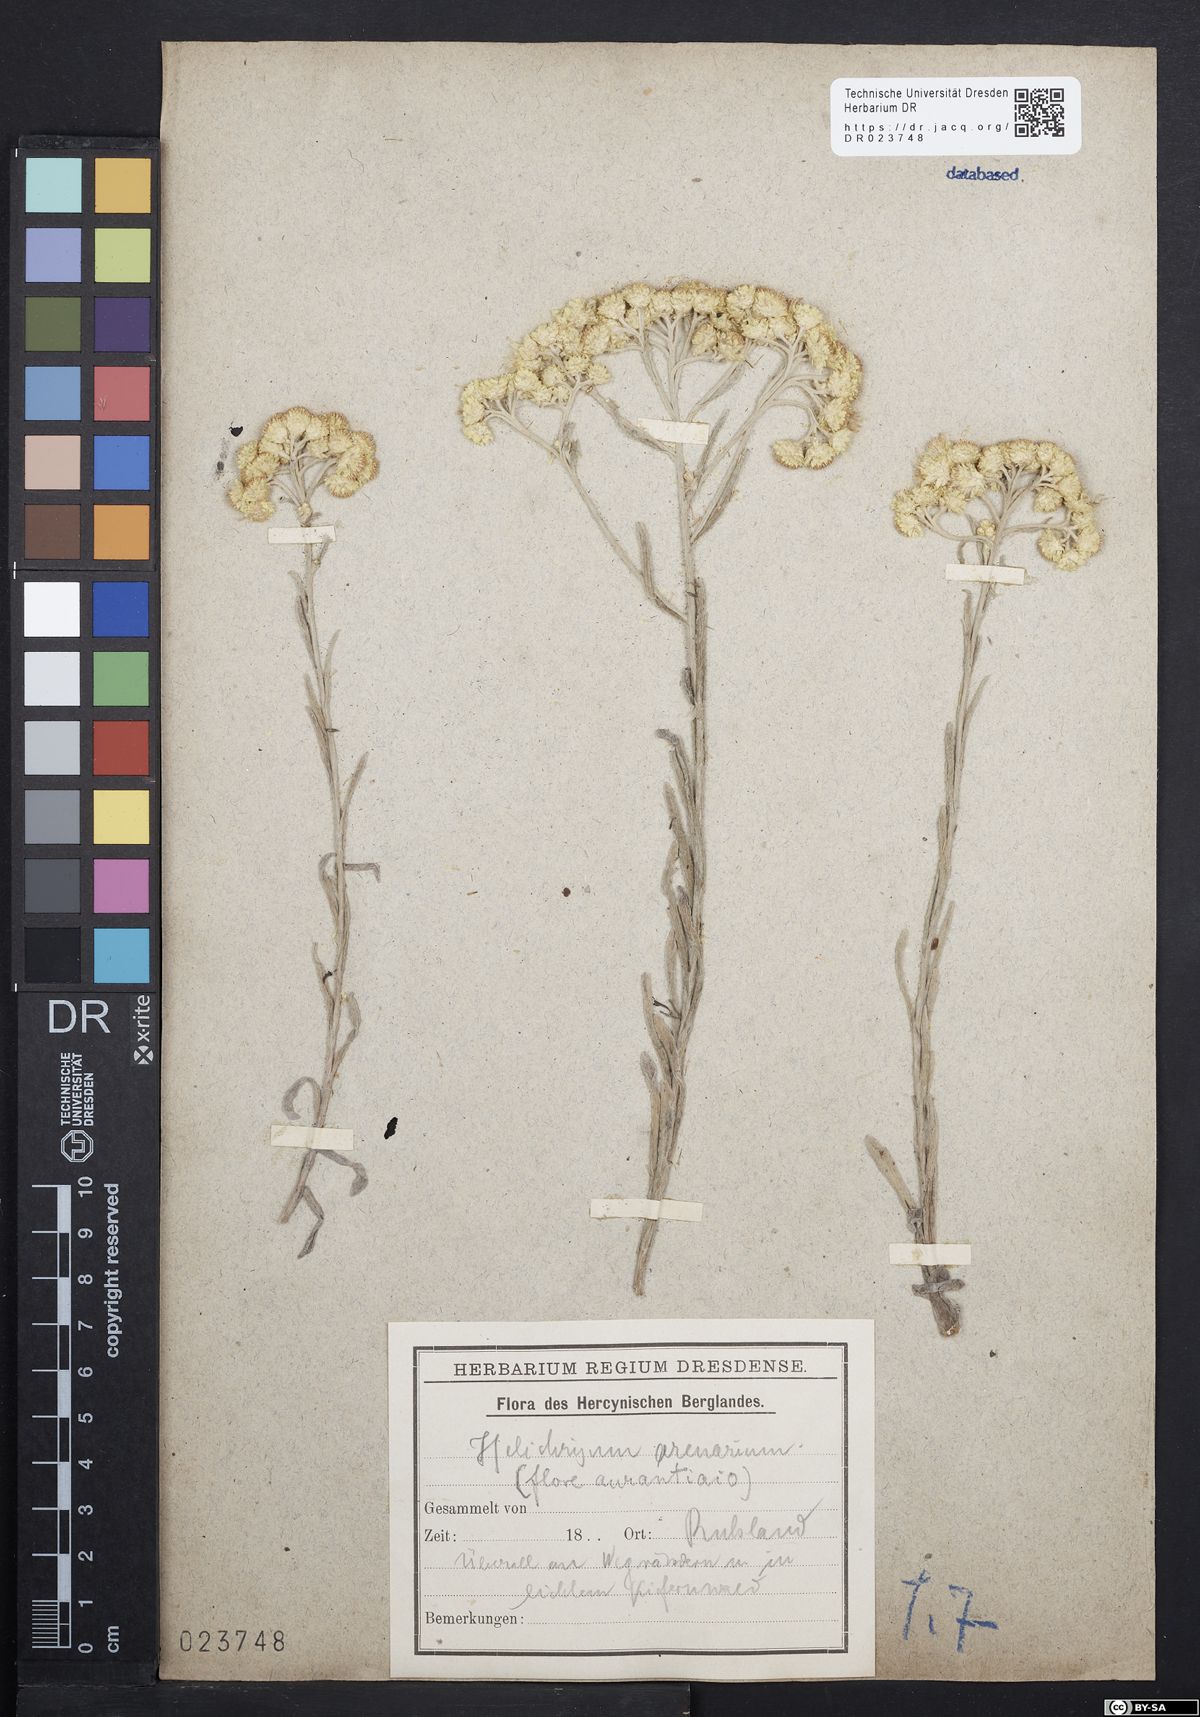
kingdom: Plantae
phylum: Tracheophyta
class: Magnoliopsida
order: Asterales
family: Asteraceae
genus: Helichrysum
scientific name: Helichrysum arenarium
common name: Strawflower
